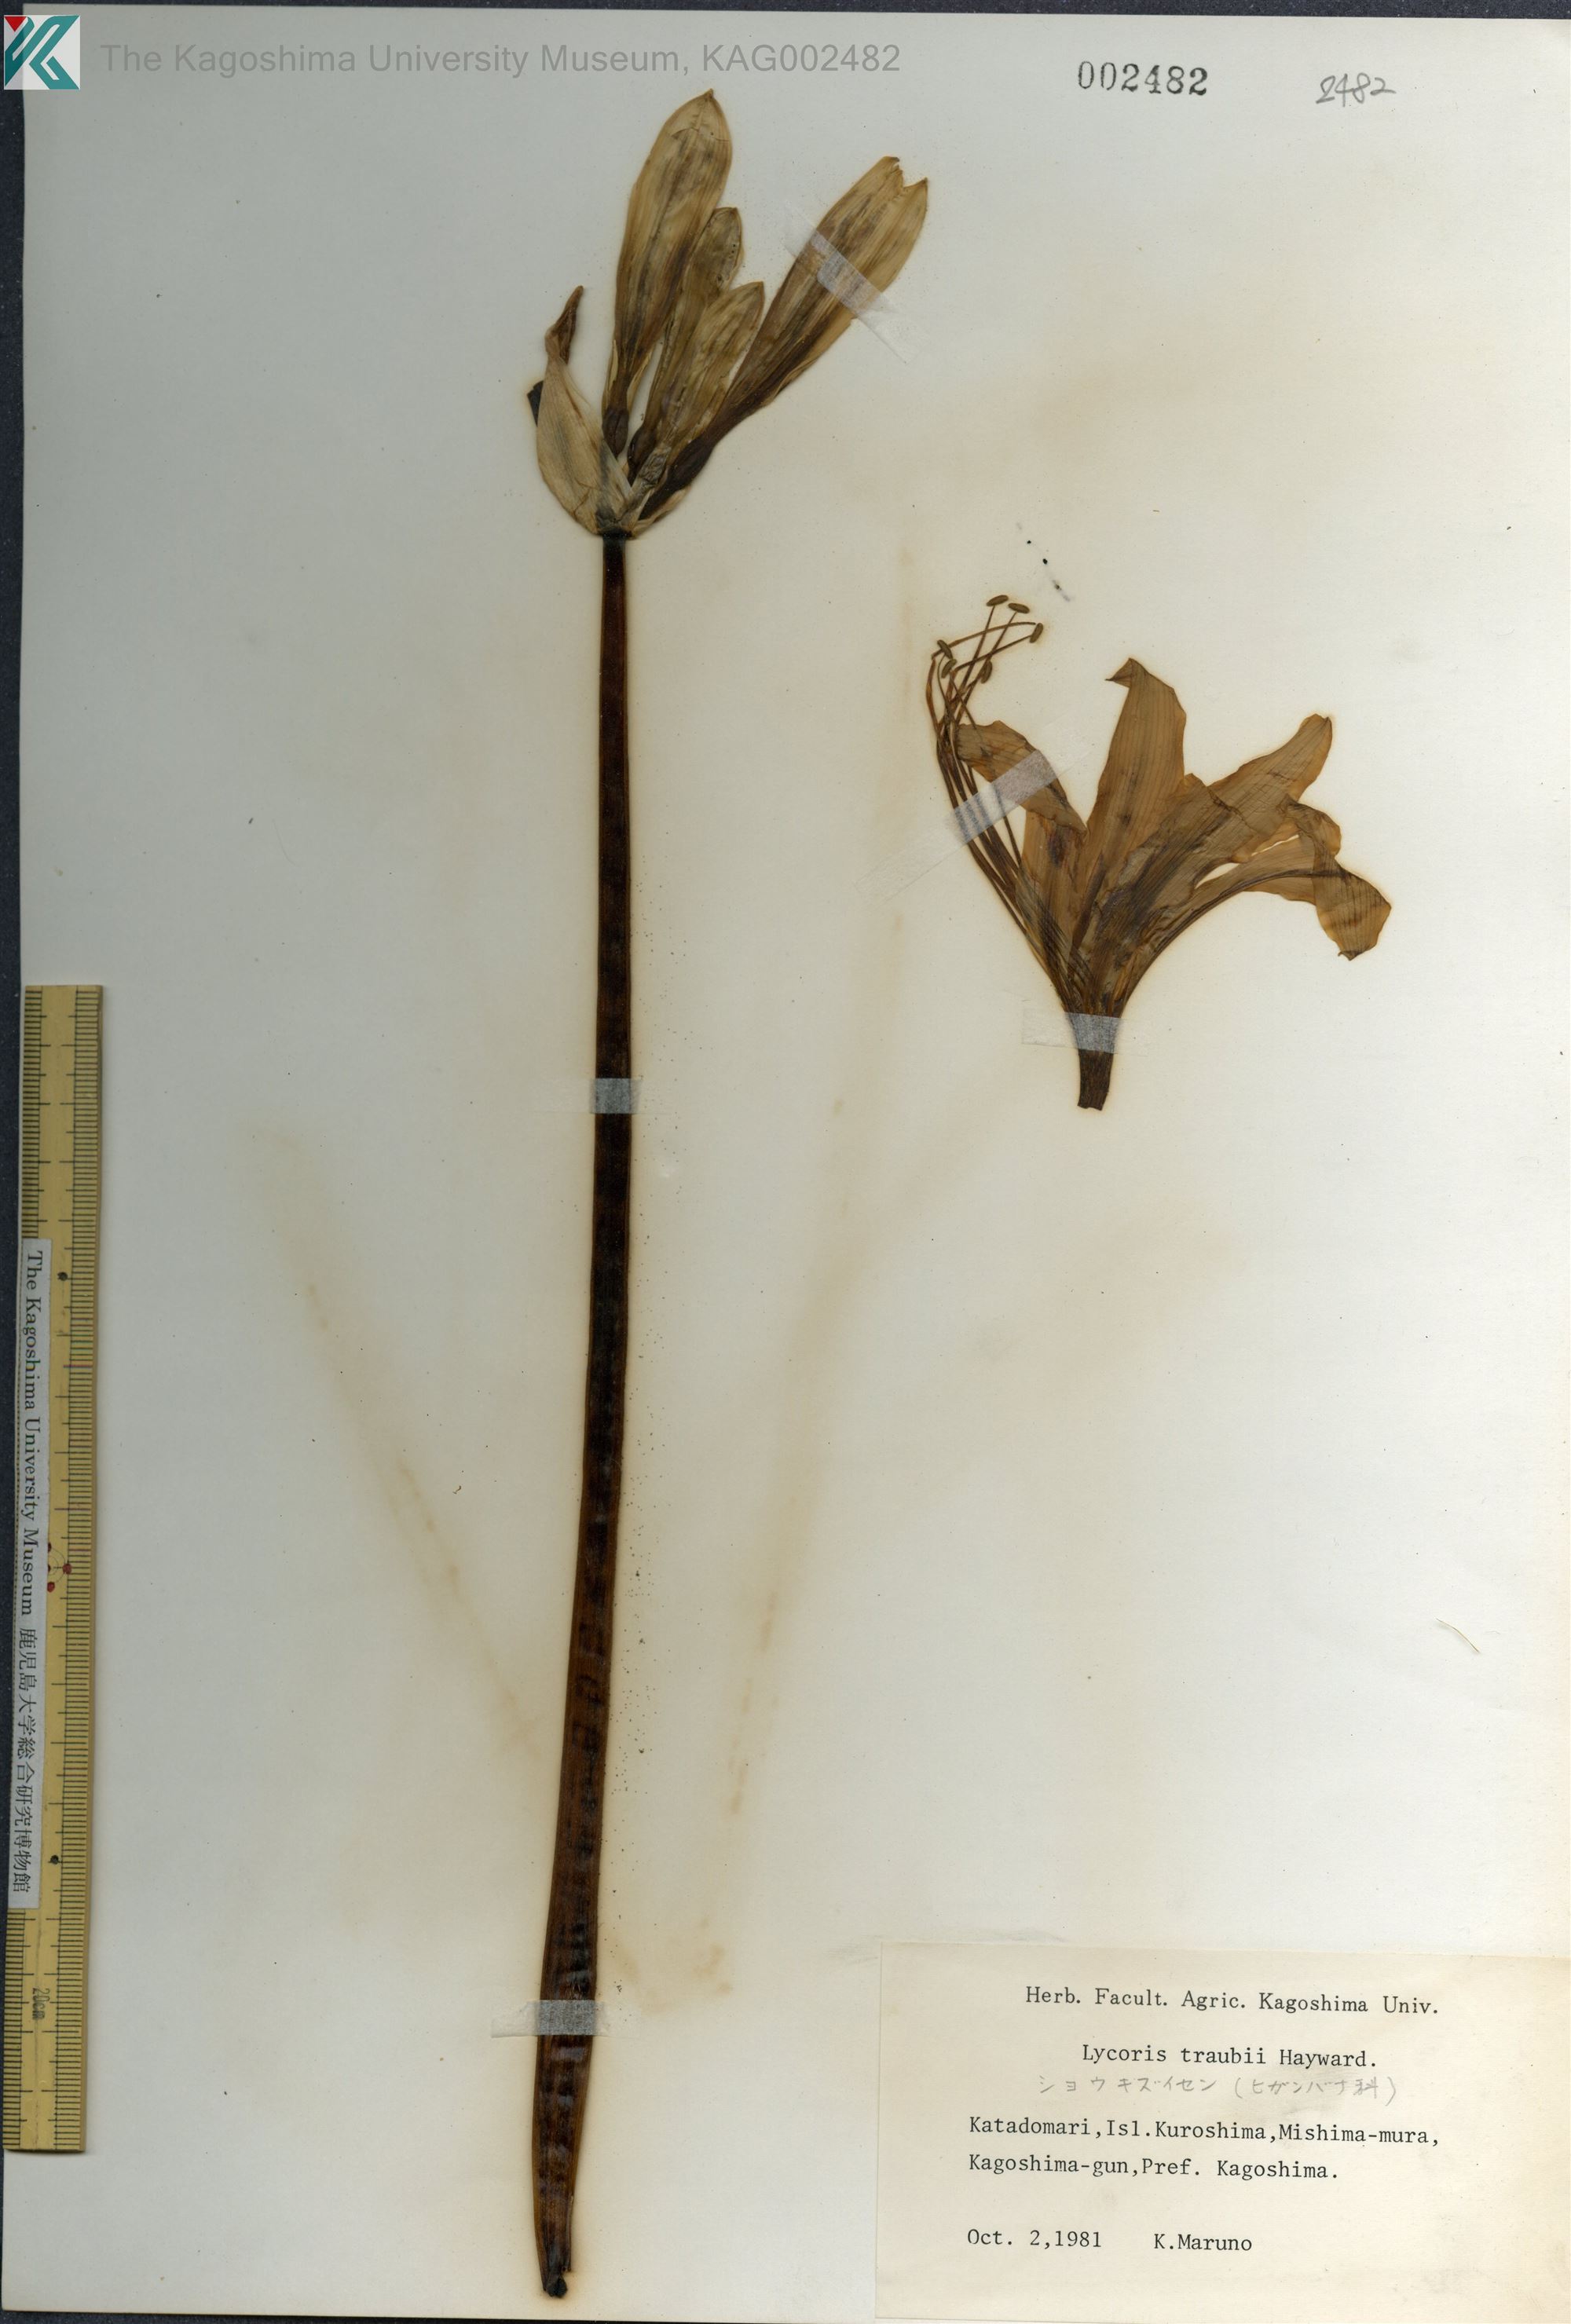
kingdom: Plantae
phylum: Tracheophyta
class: Liliopsida
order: Asparagales
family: Amaryllidaceae
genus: Lycoris
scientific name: Lycoris traubii
